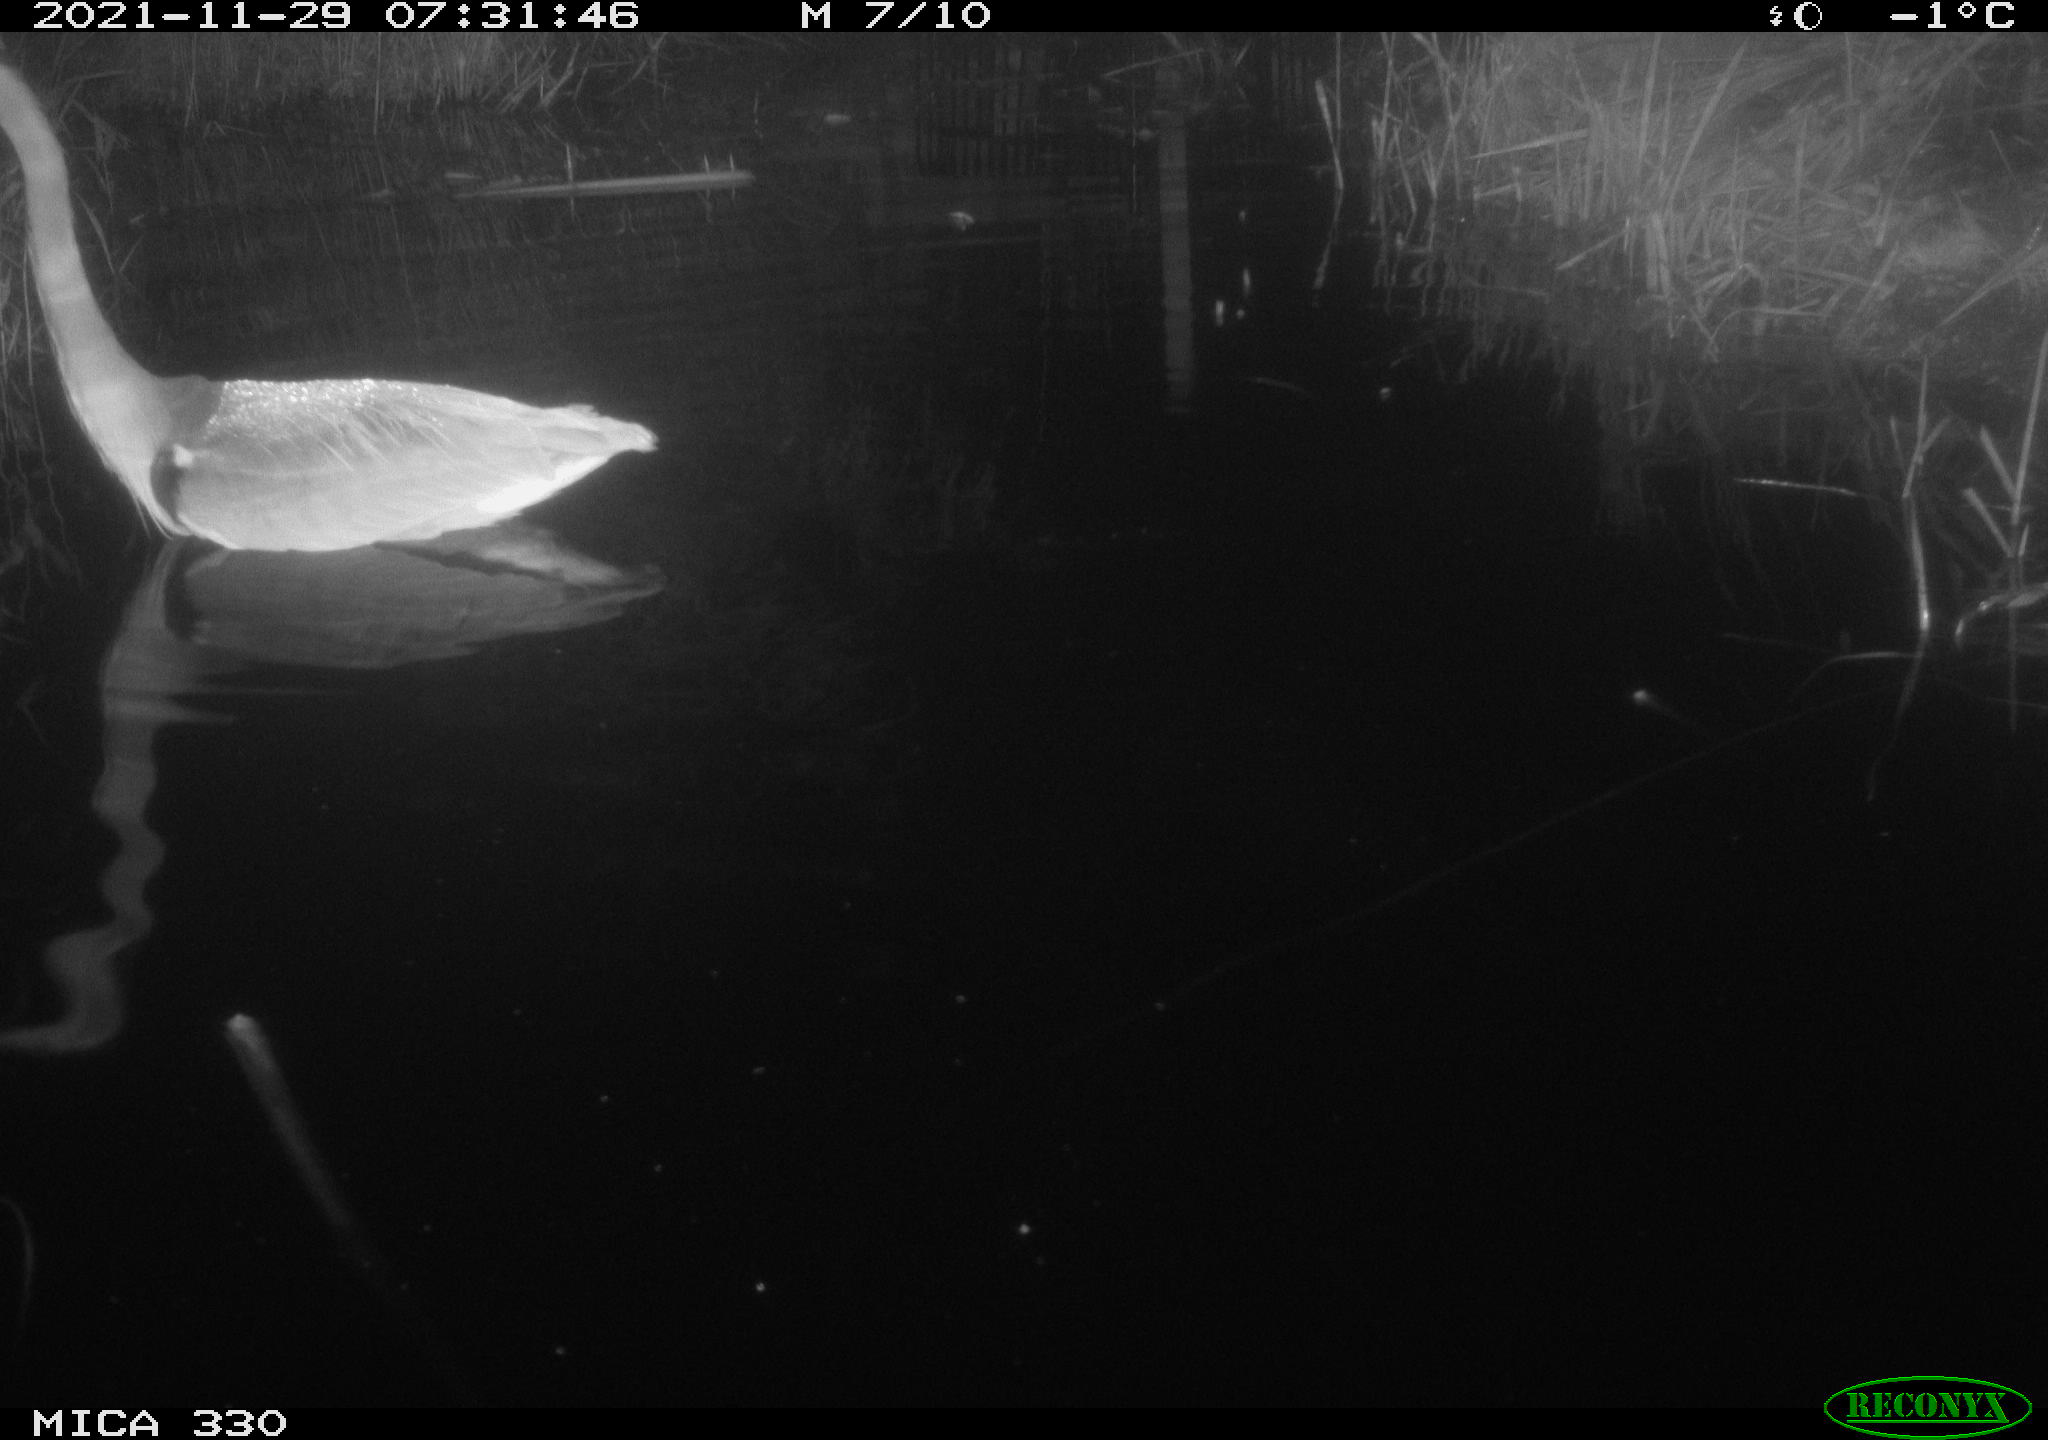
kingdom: Animalia
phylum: Chordata
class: Aves
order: Pelecaniformes
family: Ardeidae
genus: Ardea
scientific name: Ardea cinerea
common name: Grey heron
